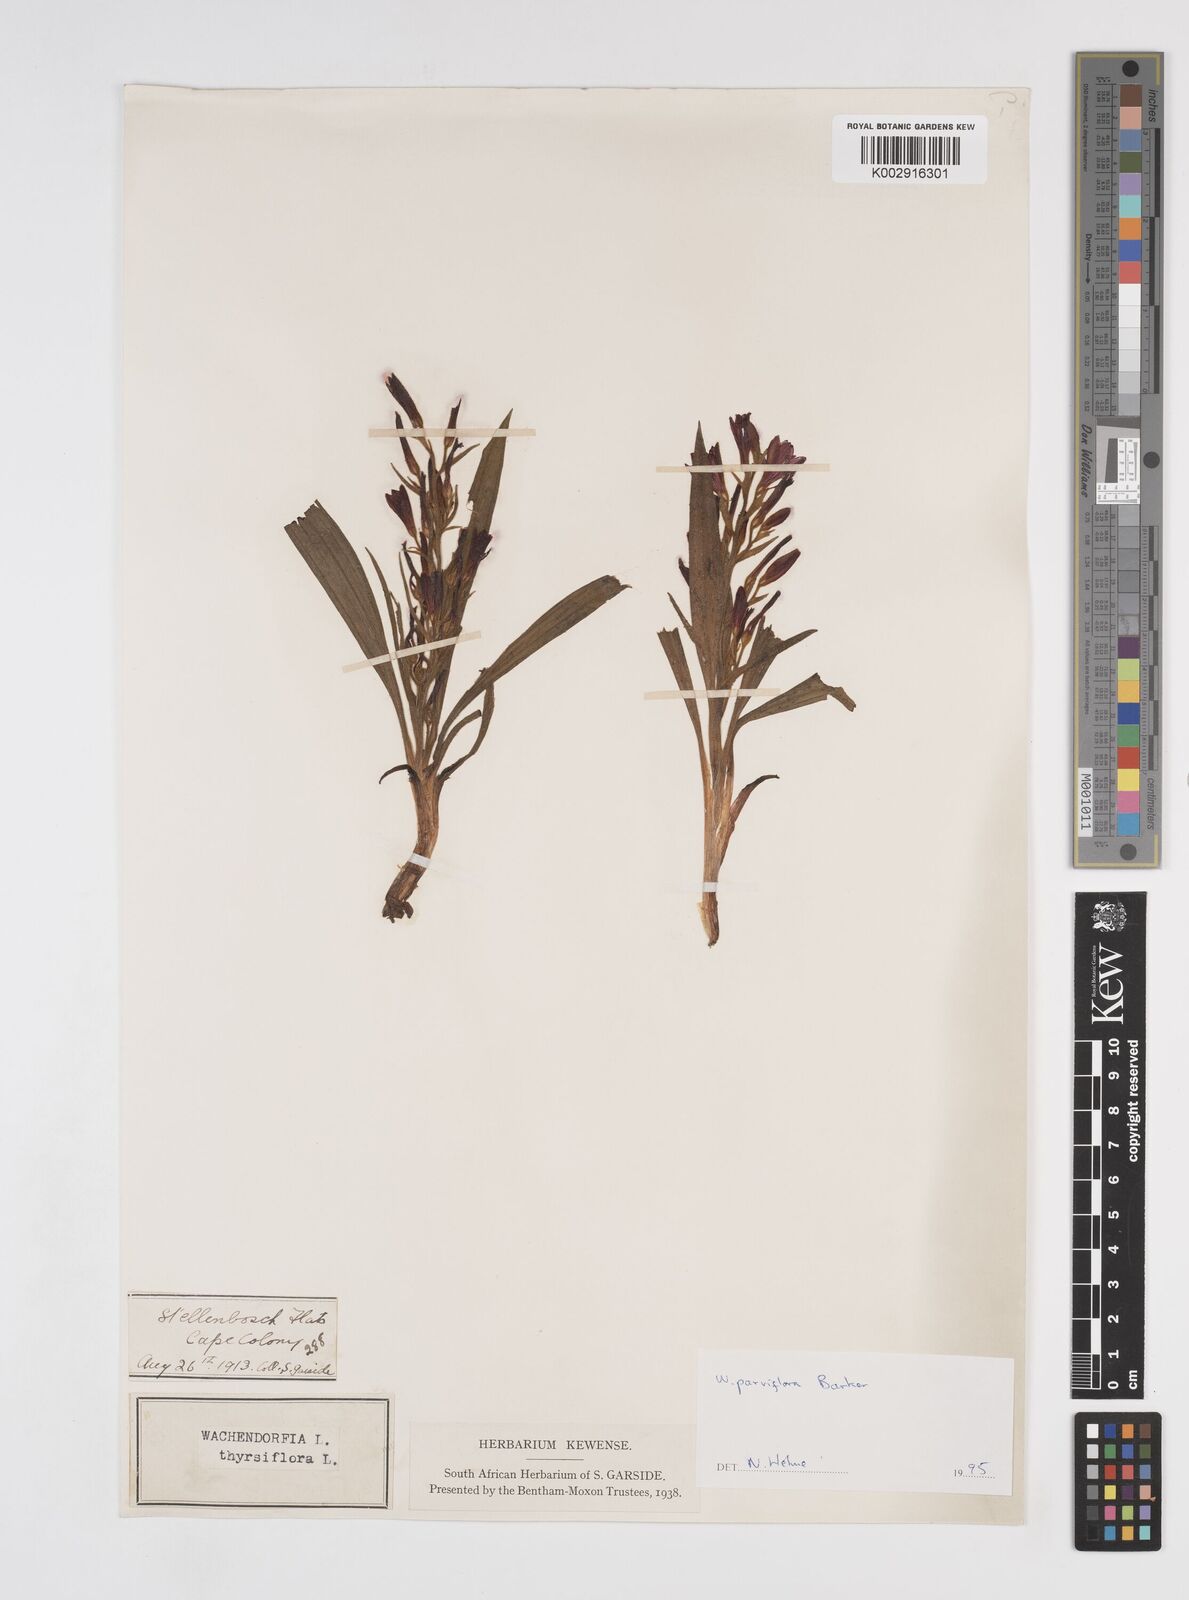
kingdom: Plantae
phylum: Tracheophyta
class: Liliopsida
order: Commelinales
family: Haemodoraceae
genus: Wachendorfia
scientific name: Wachendorfia multiflora
